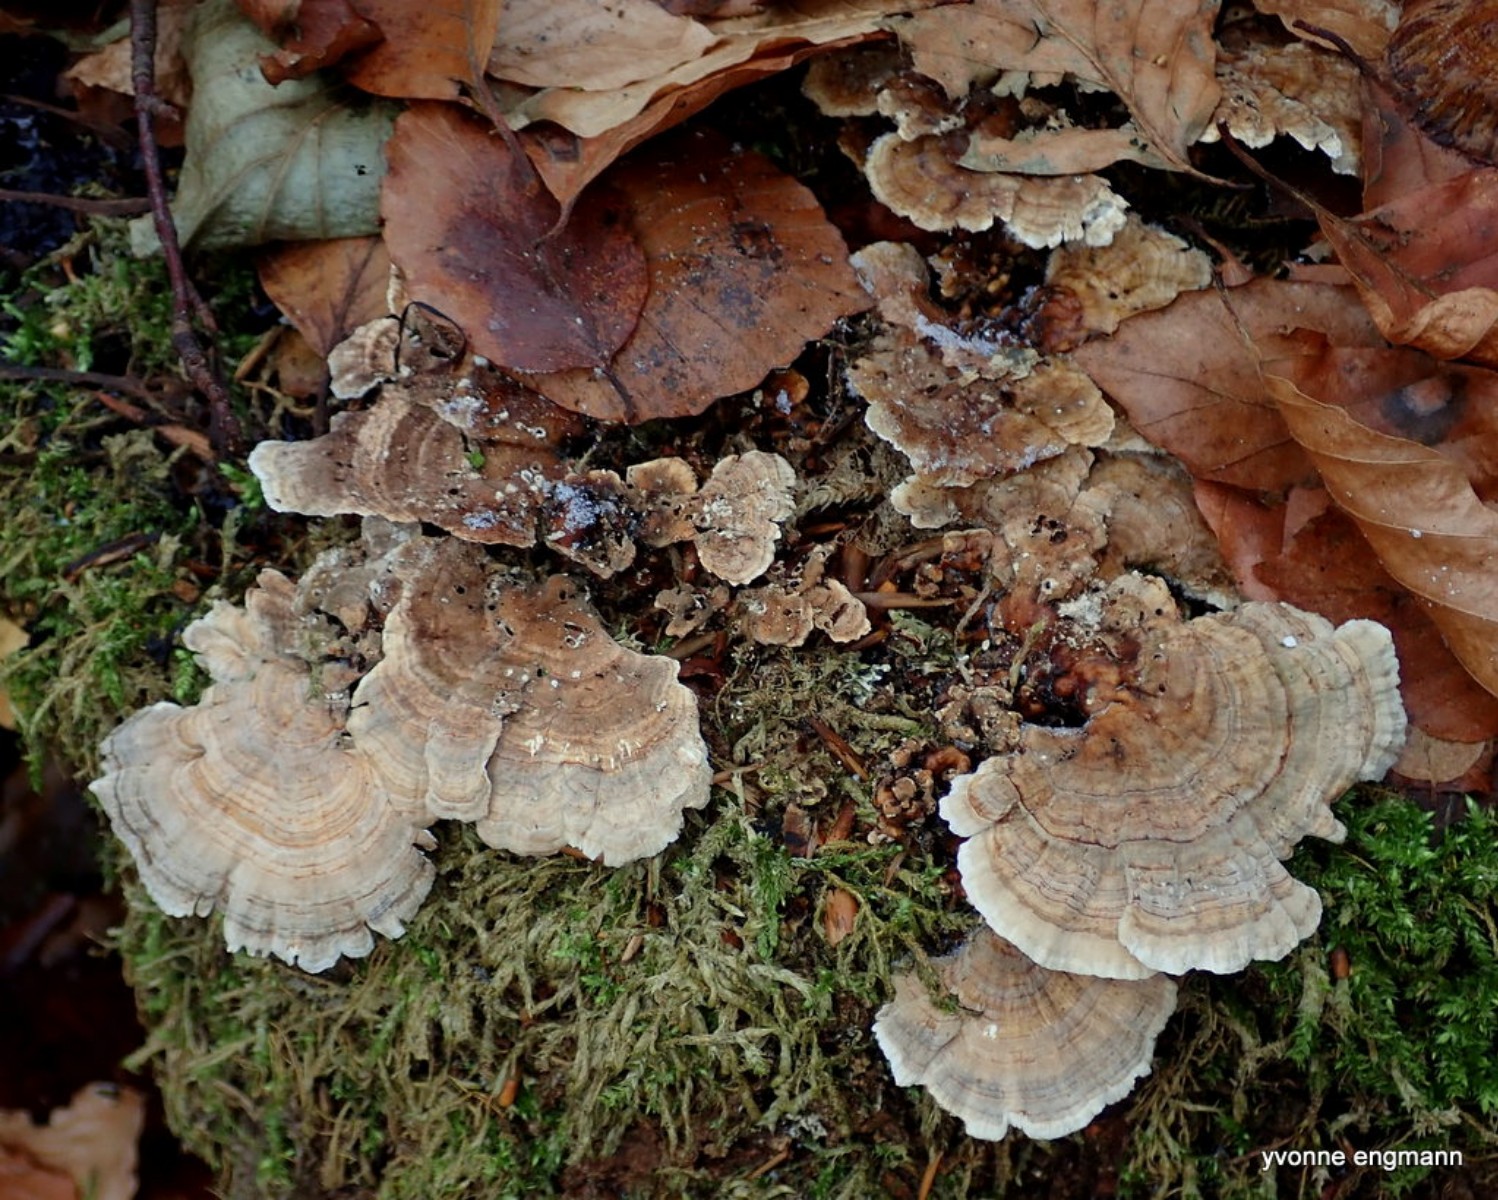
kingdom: Fungi
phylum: Basidiomycota
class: Agaricomycetes
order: Polyporales
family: Polyporaceae
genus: Trametes
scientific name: Trametes ochracea
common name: bæltet læderporesvamp
